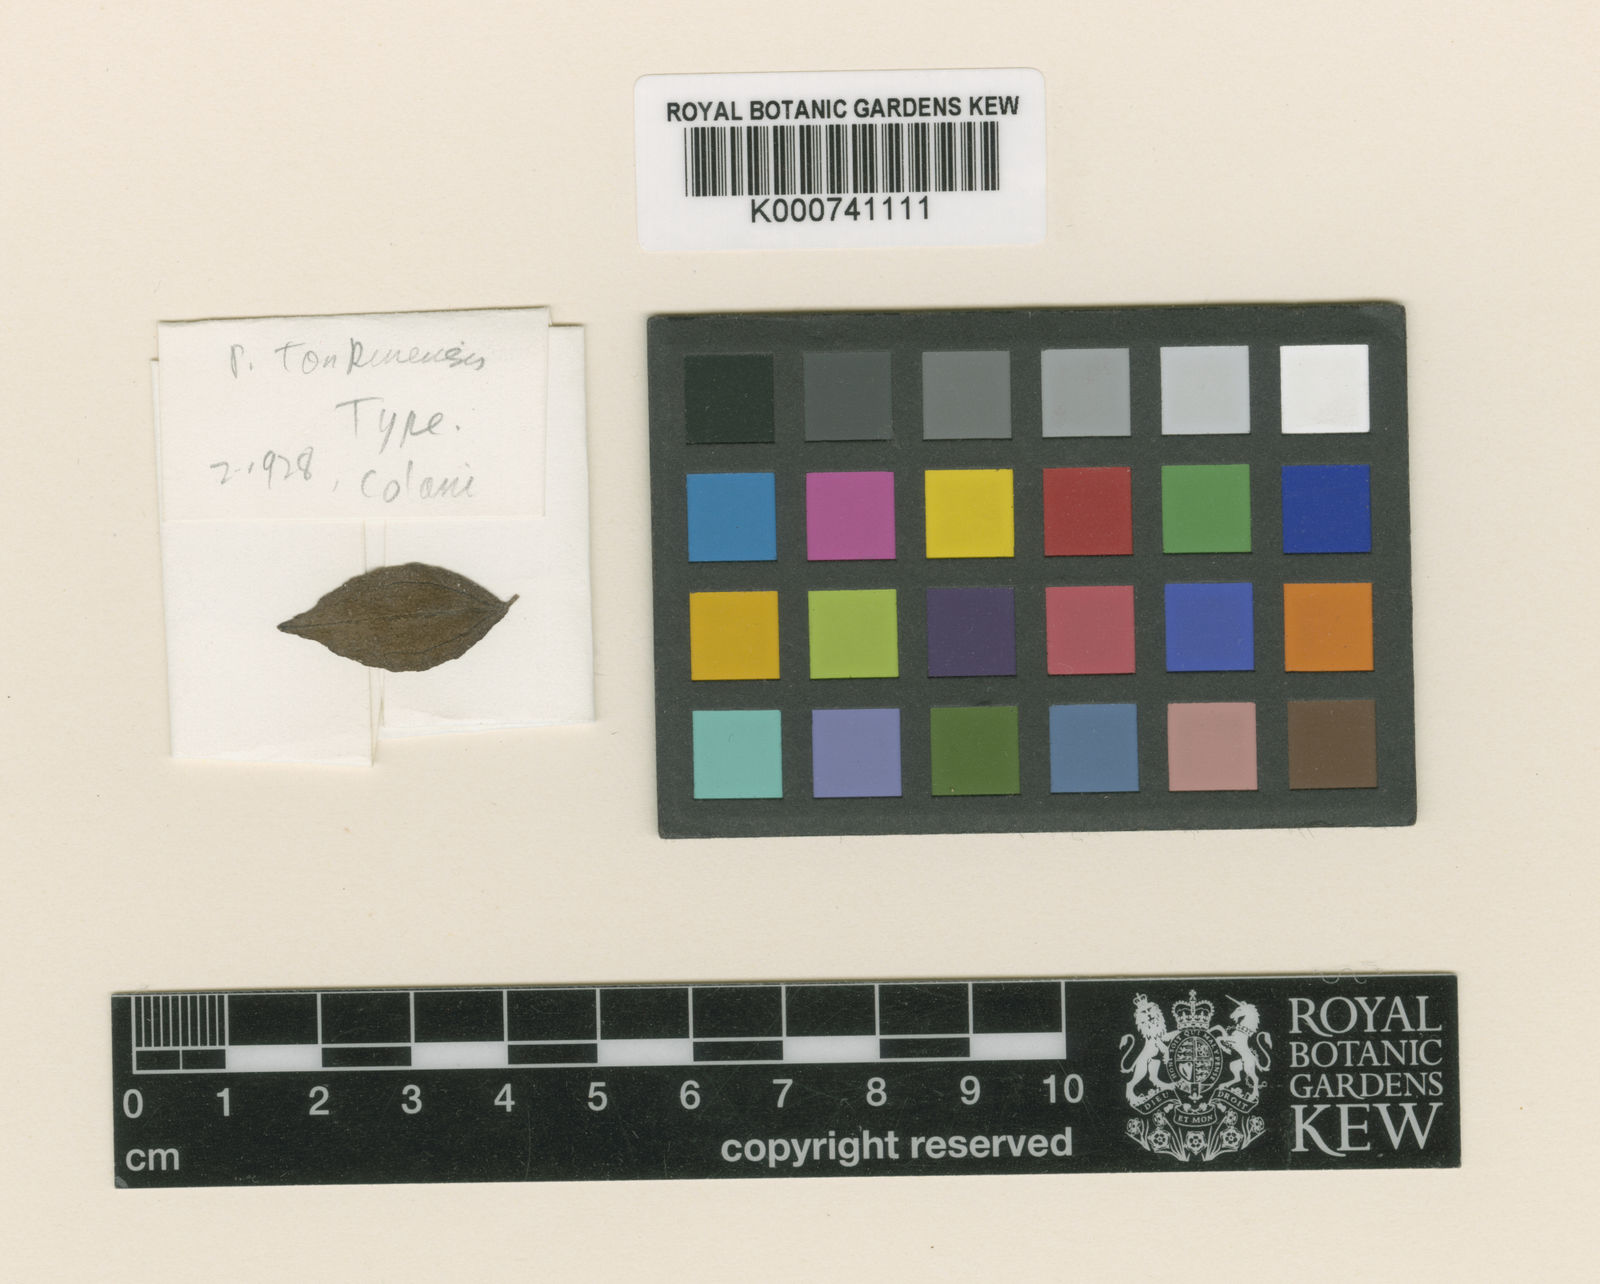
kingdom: Plantae
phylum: Tracheophyta
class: Magnoliopsida
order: Rosales
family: Urticaceae
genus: Petelotiella
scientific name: Petelotiella tonkinensis
